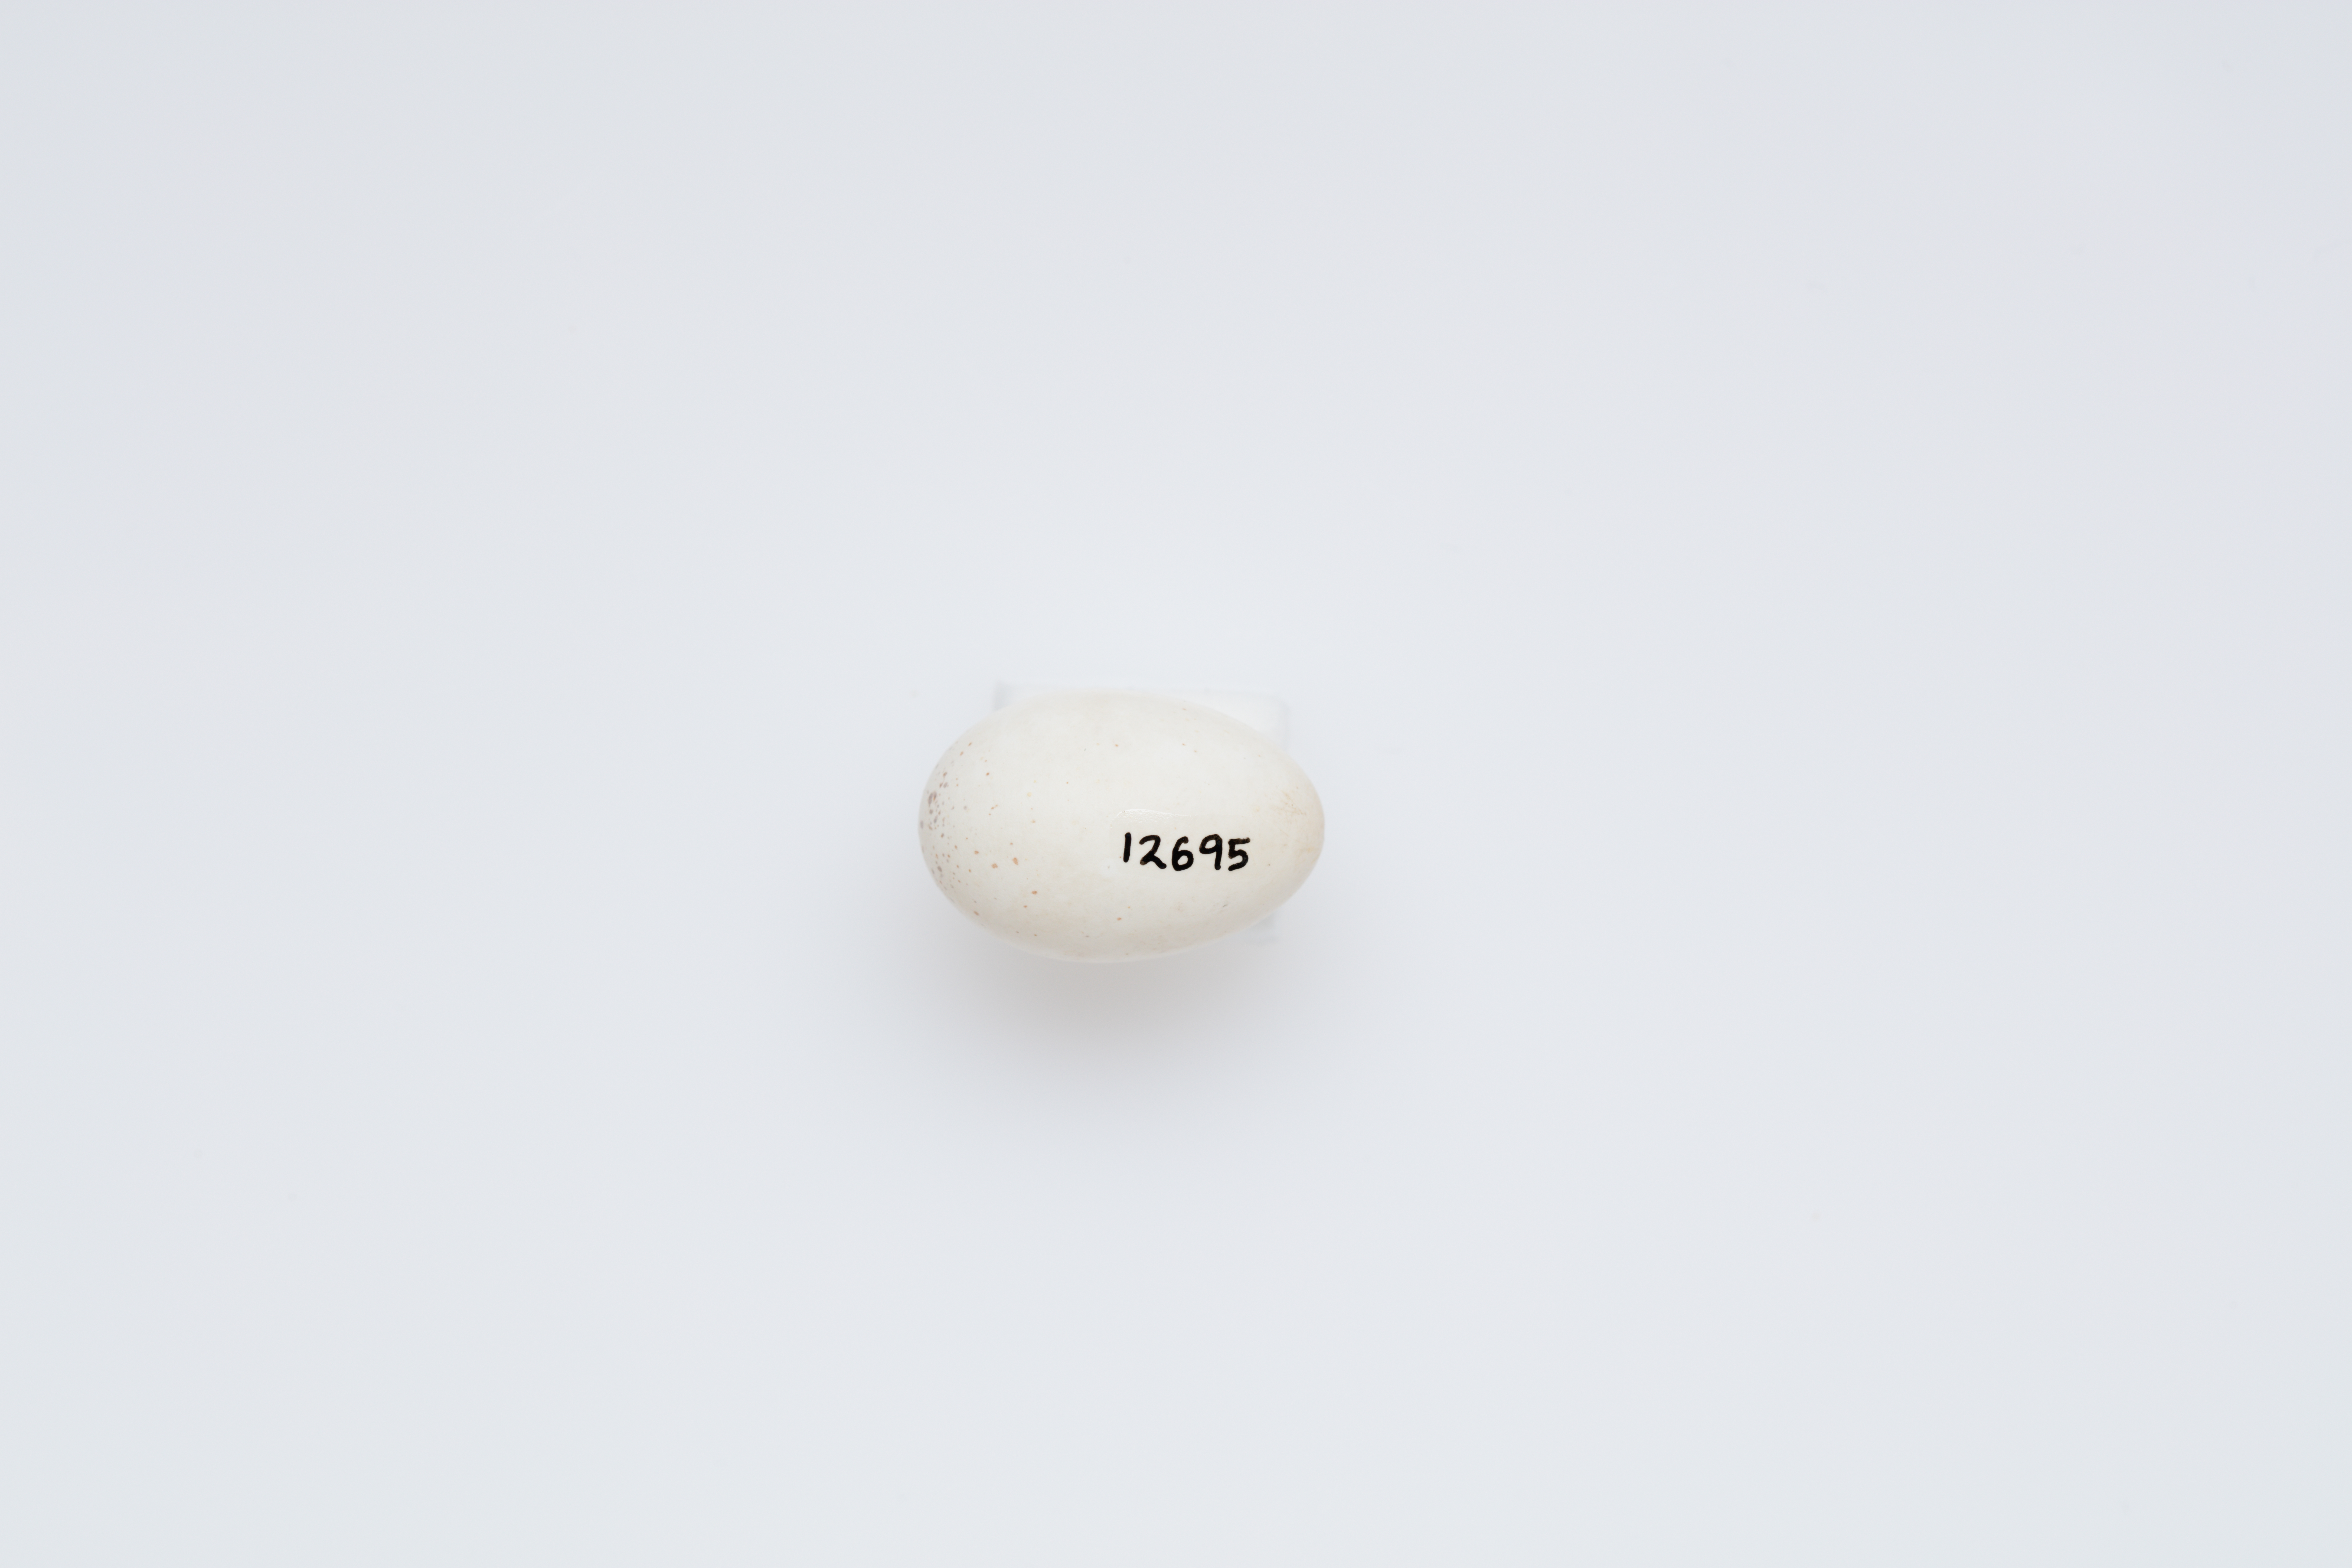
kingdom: Animalia
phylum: Chordata
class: Aves
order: Passeriformes
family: Acanthizidae
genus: Acanthiza
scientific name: Acanthiza reguloides
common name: Buff-rumped thornbill
